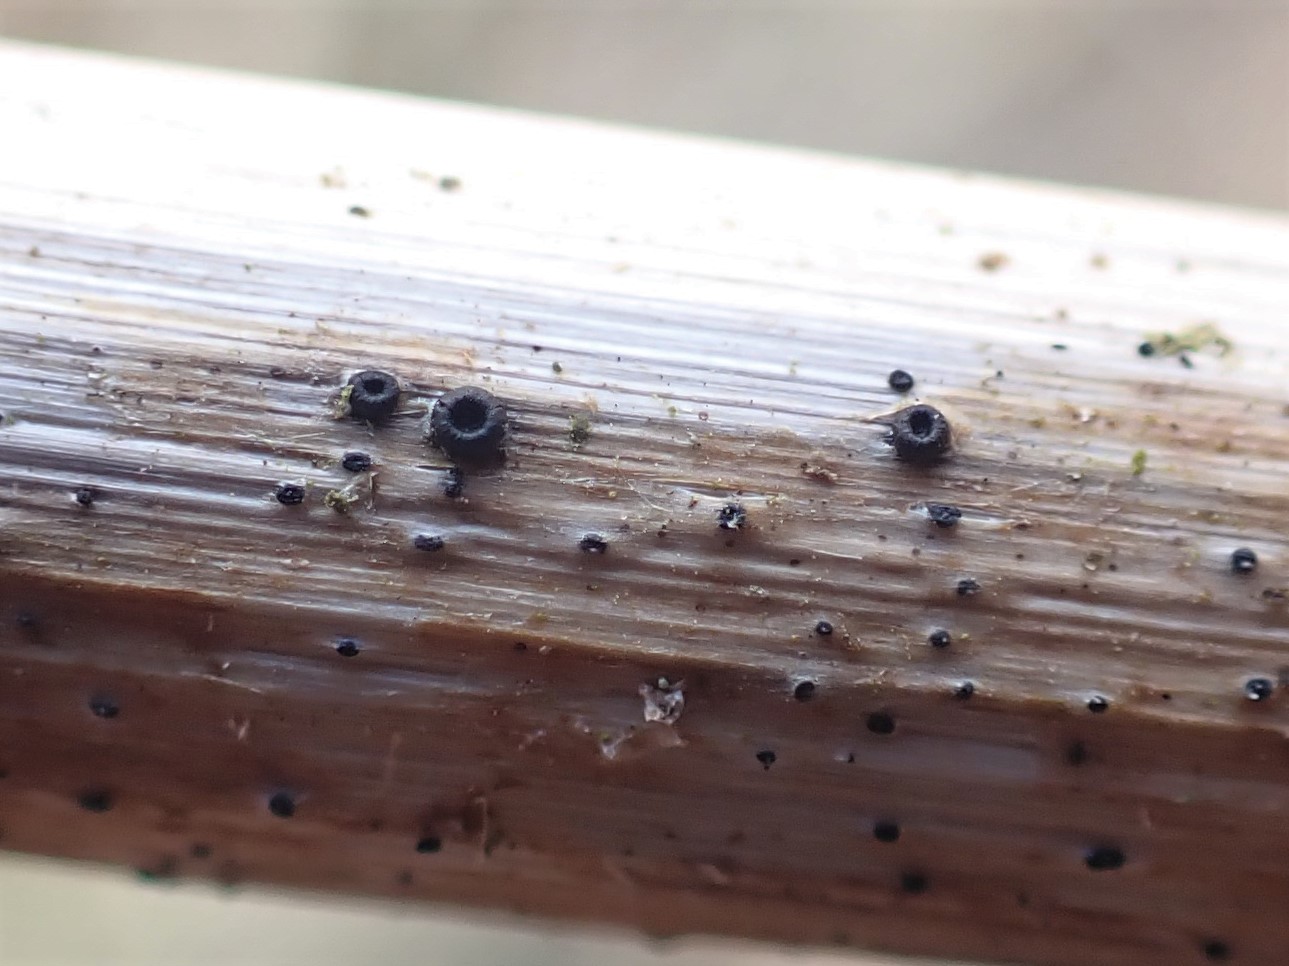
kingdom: Fungi
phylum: Ascomycota
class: Leotiomycetes
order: Helotiales
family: Heterosphaeriaceae
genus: Heterosphaeria
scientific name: Heterosphaeria
